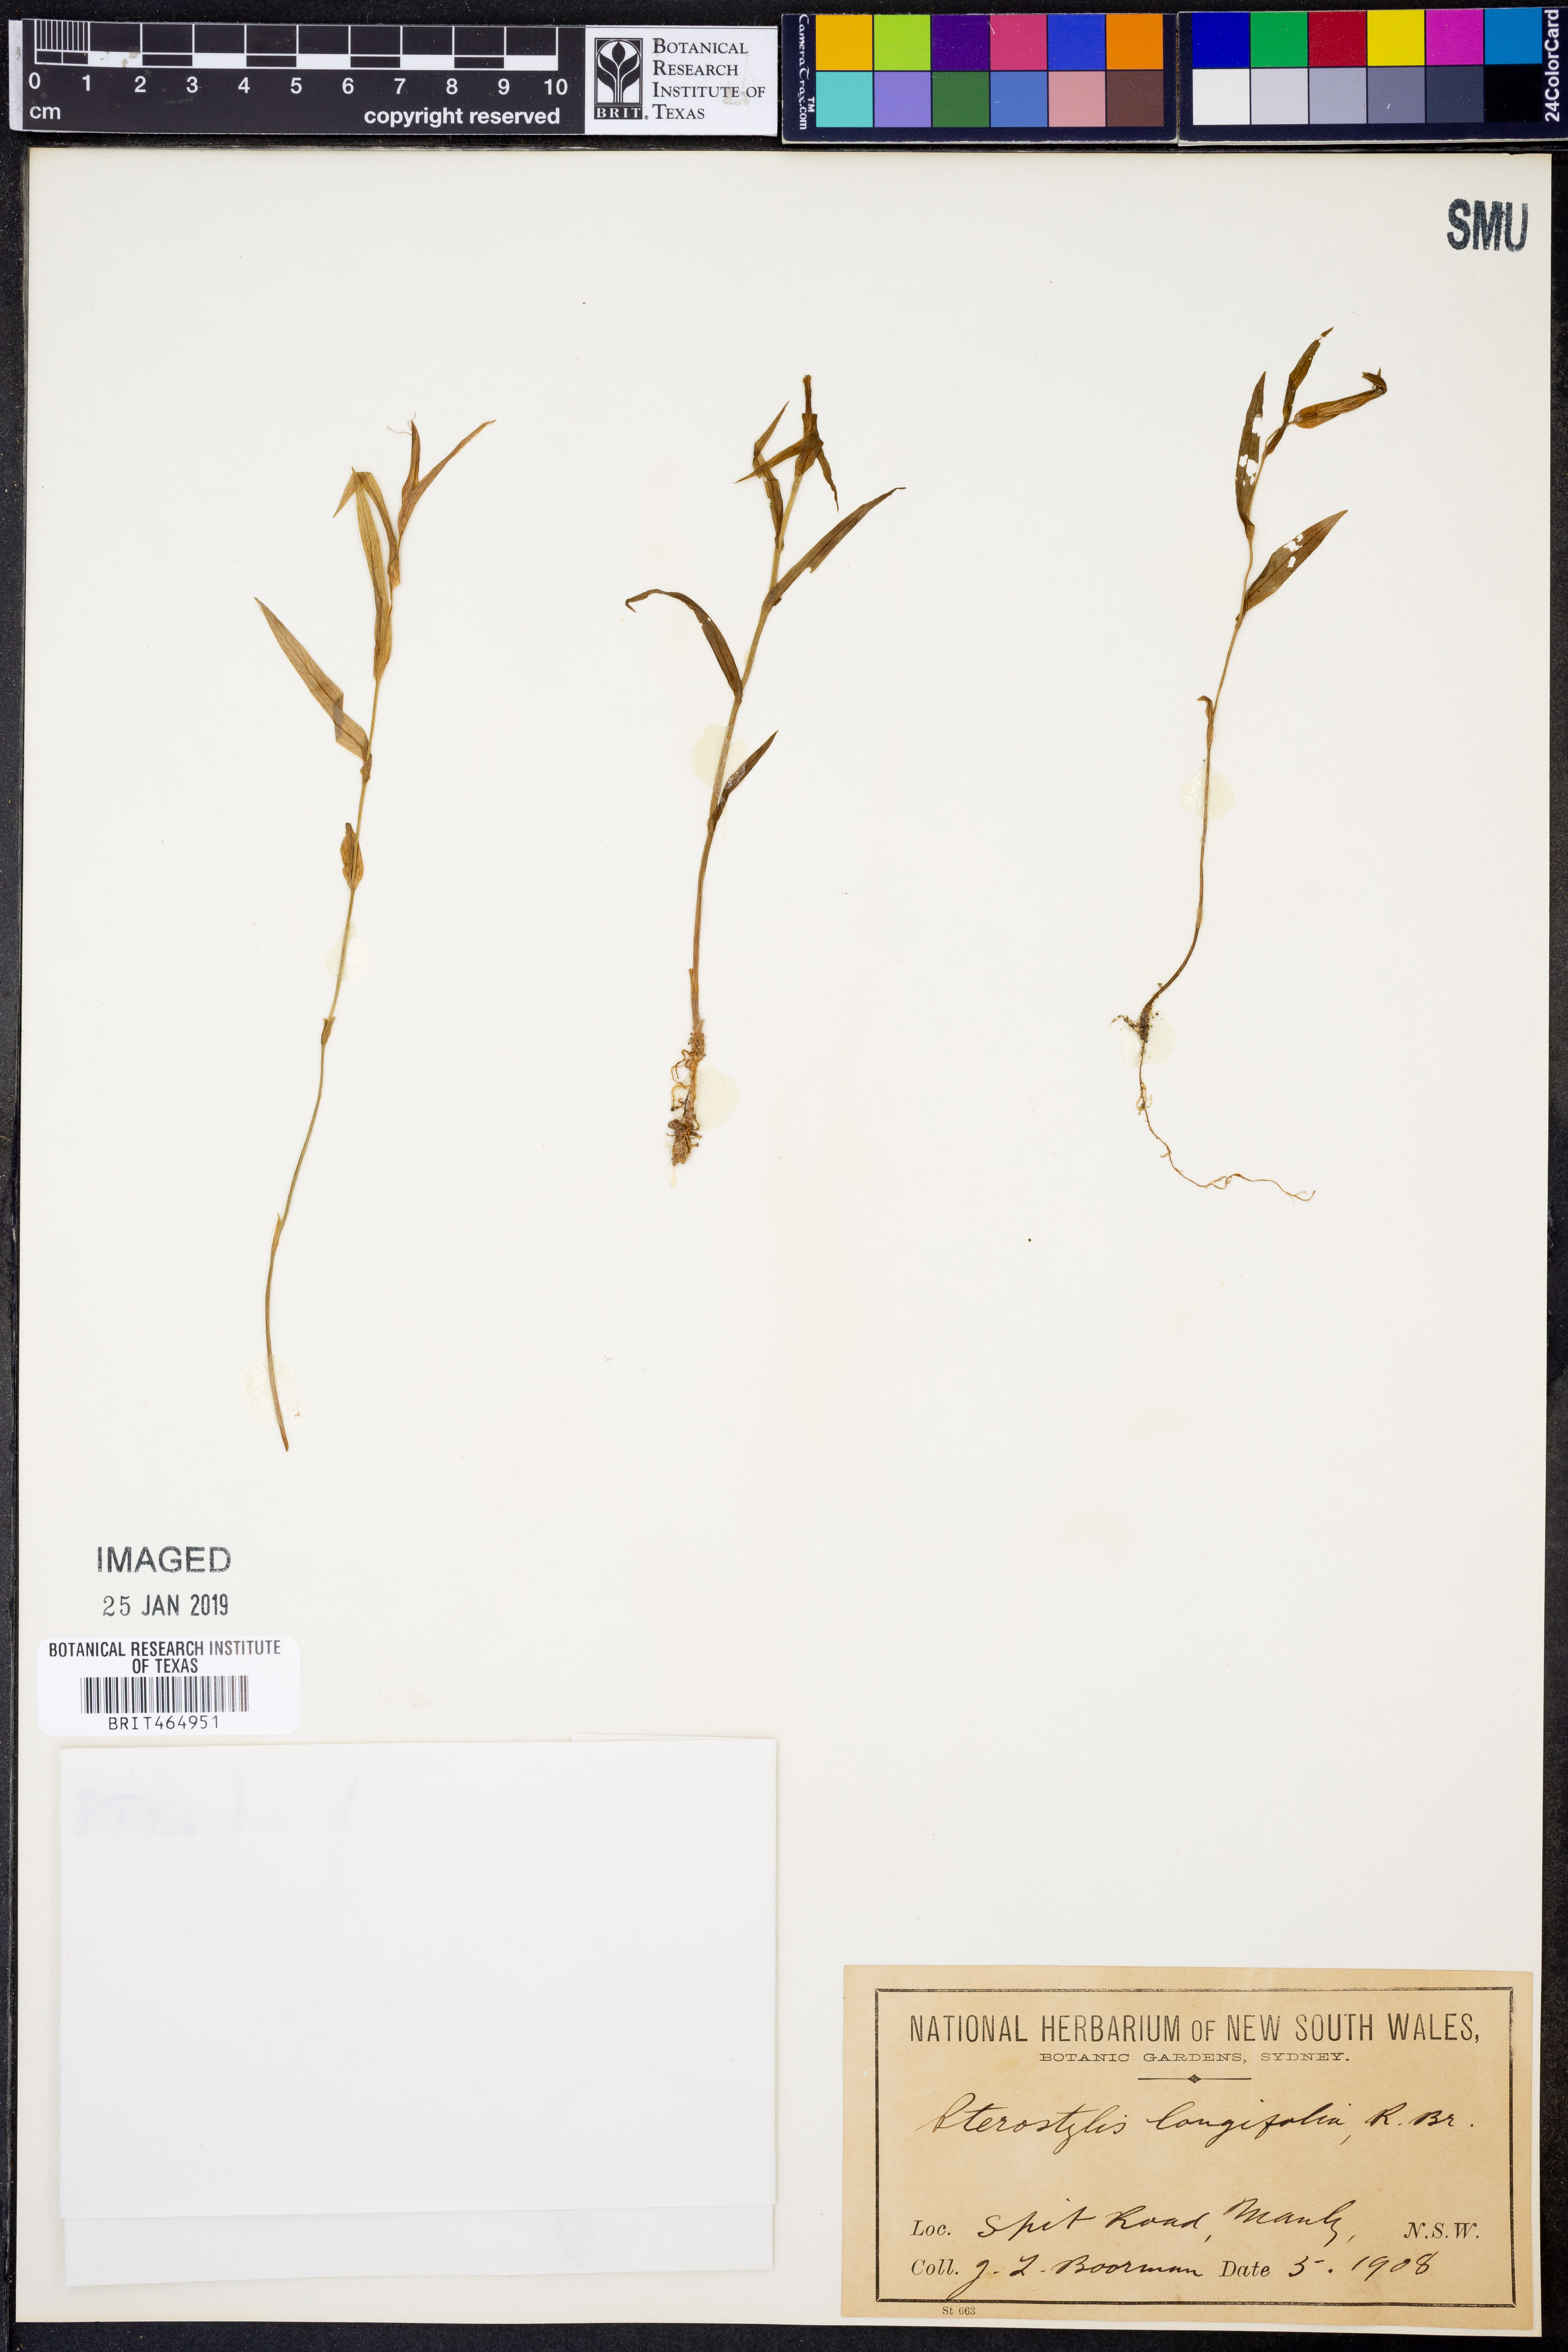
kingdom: Plantae
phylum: Tracheophyta
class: Liliopsida
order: Asparagales
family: Orchidaceae
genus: Pterostylis
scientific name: Pterostylis longifolia
